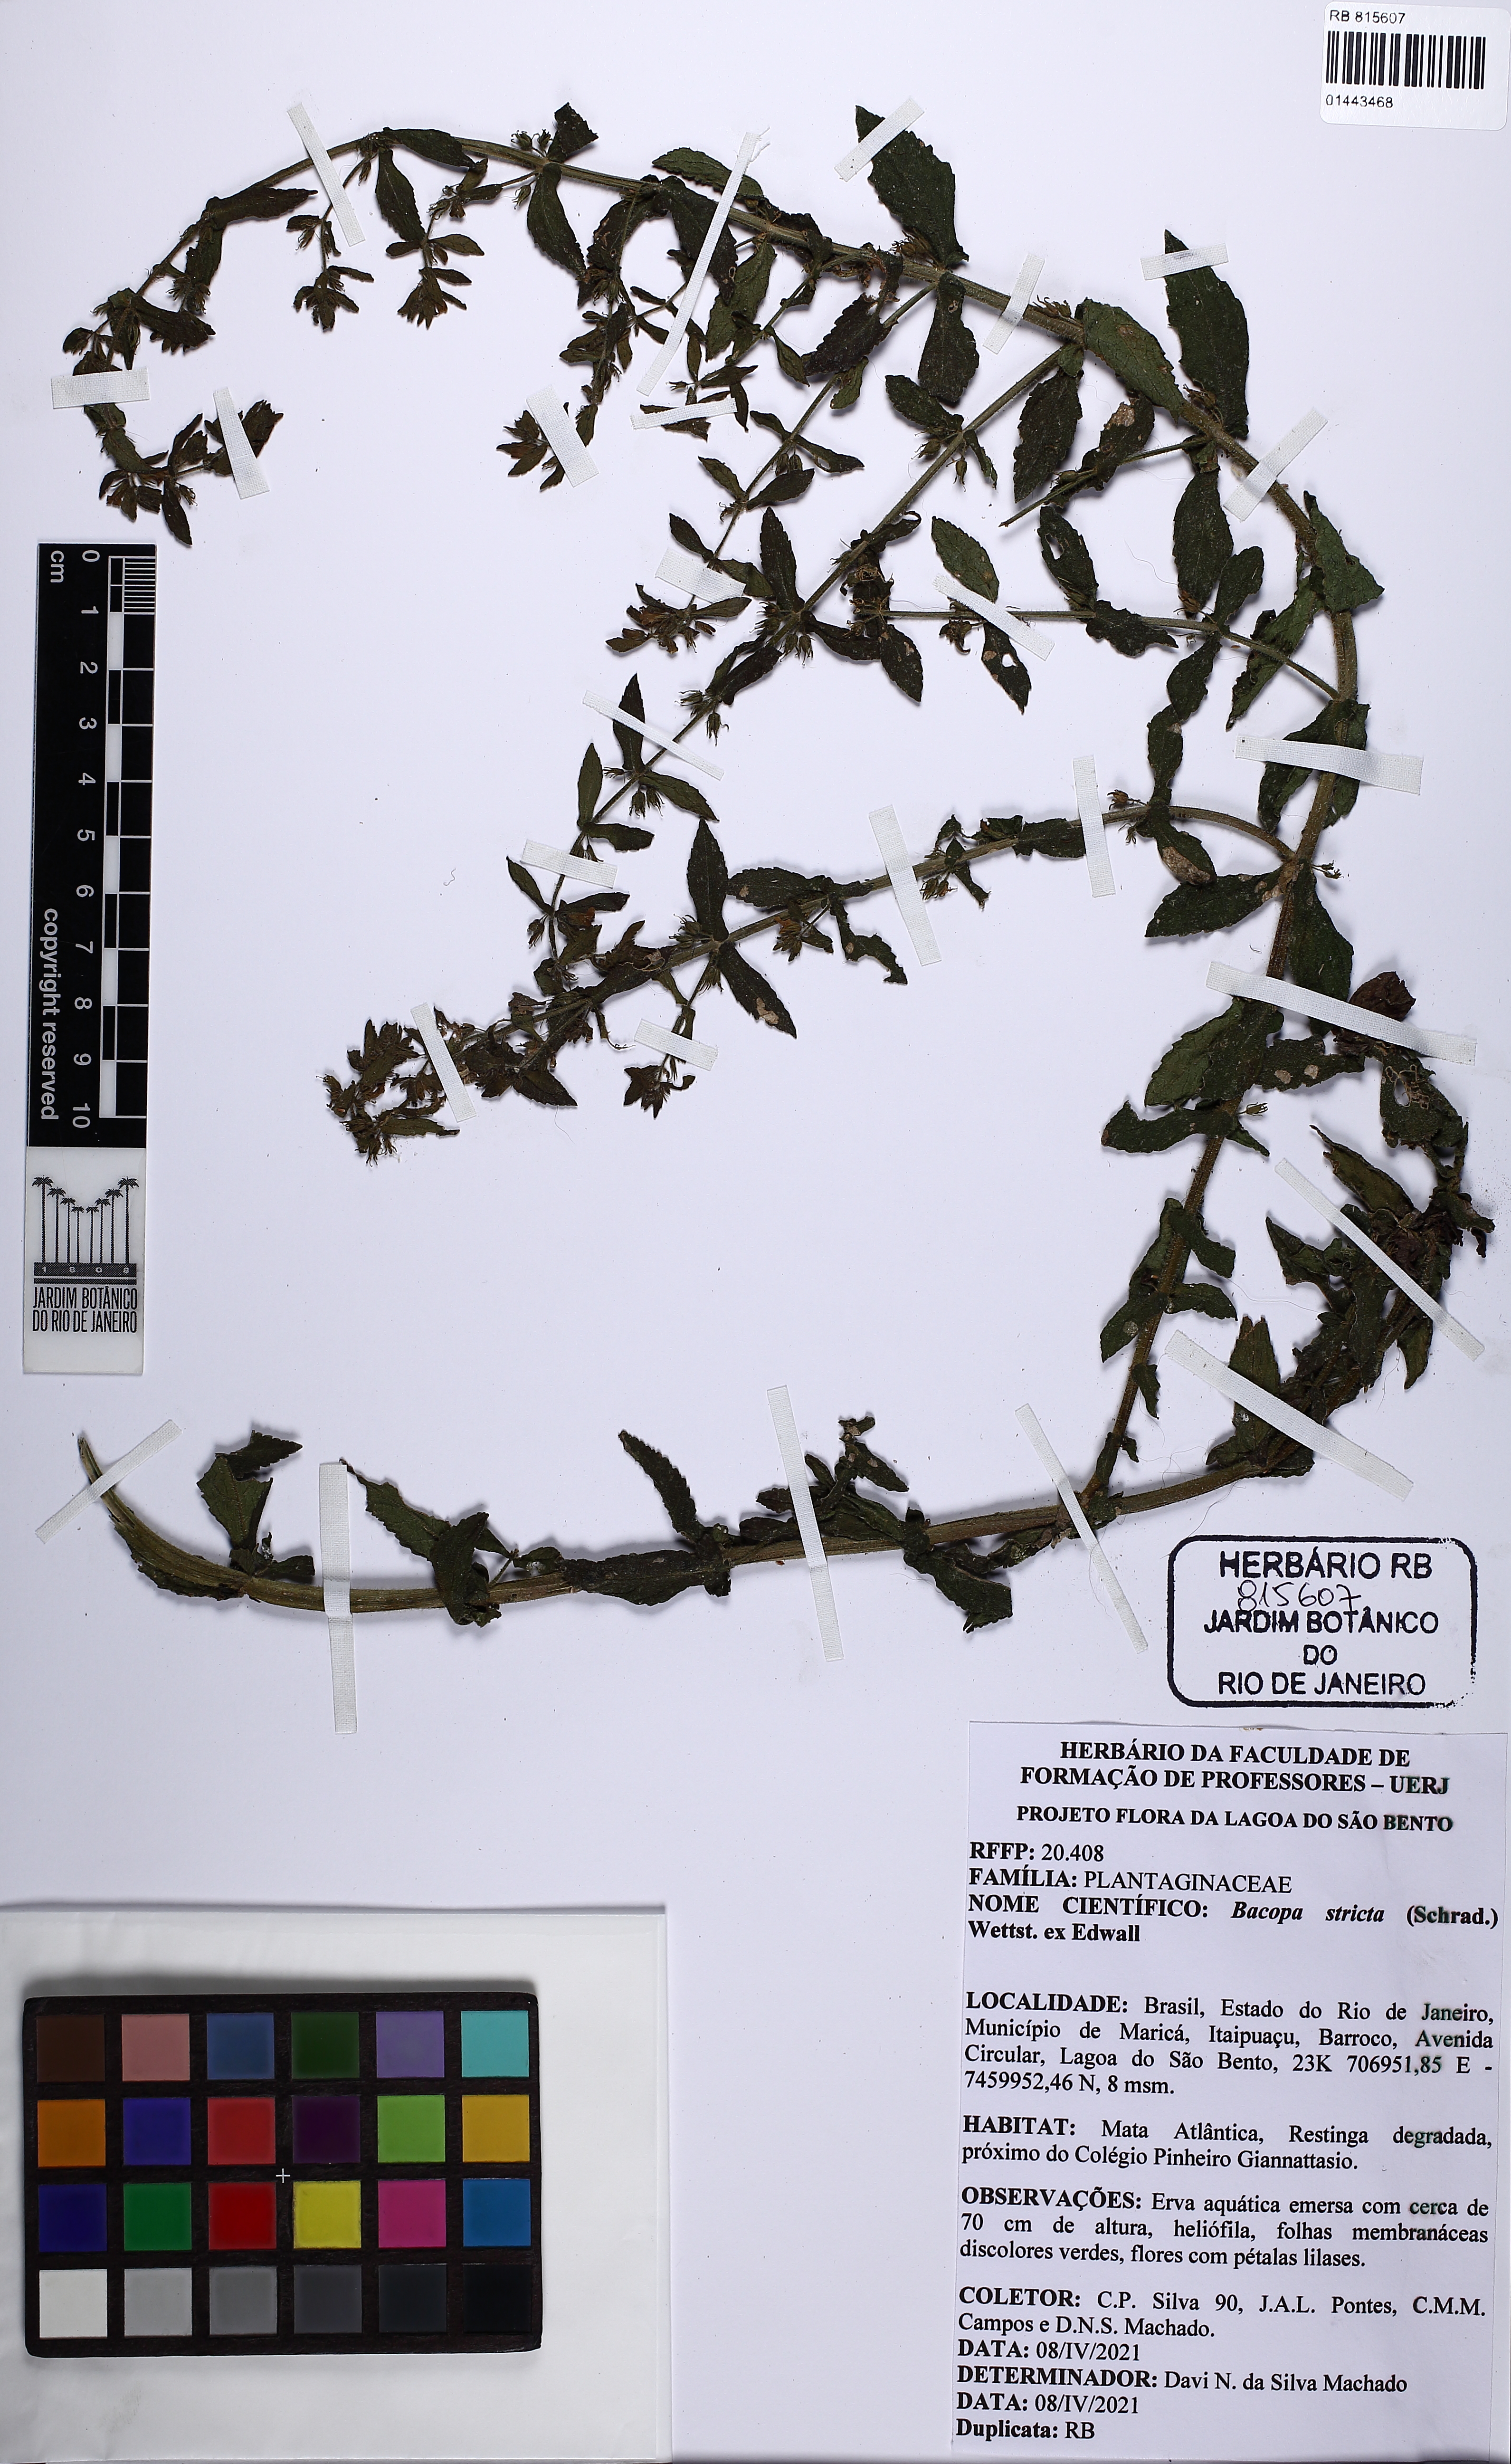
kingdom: Plantae
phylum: Tracheophyta
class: Magnoliopsida
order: Lamiales
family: Plantaginaceae
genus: Bacopa
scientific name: Bacopa stricta
